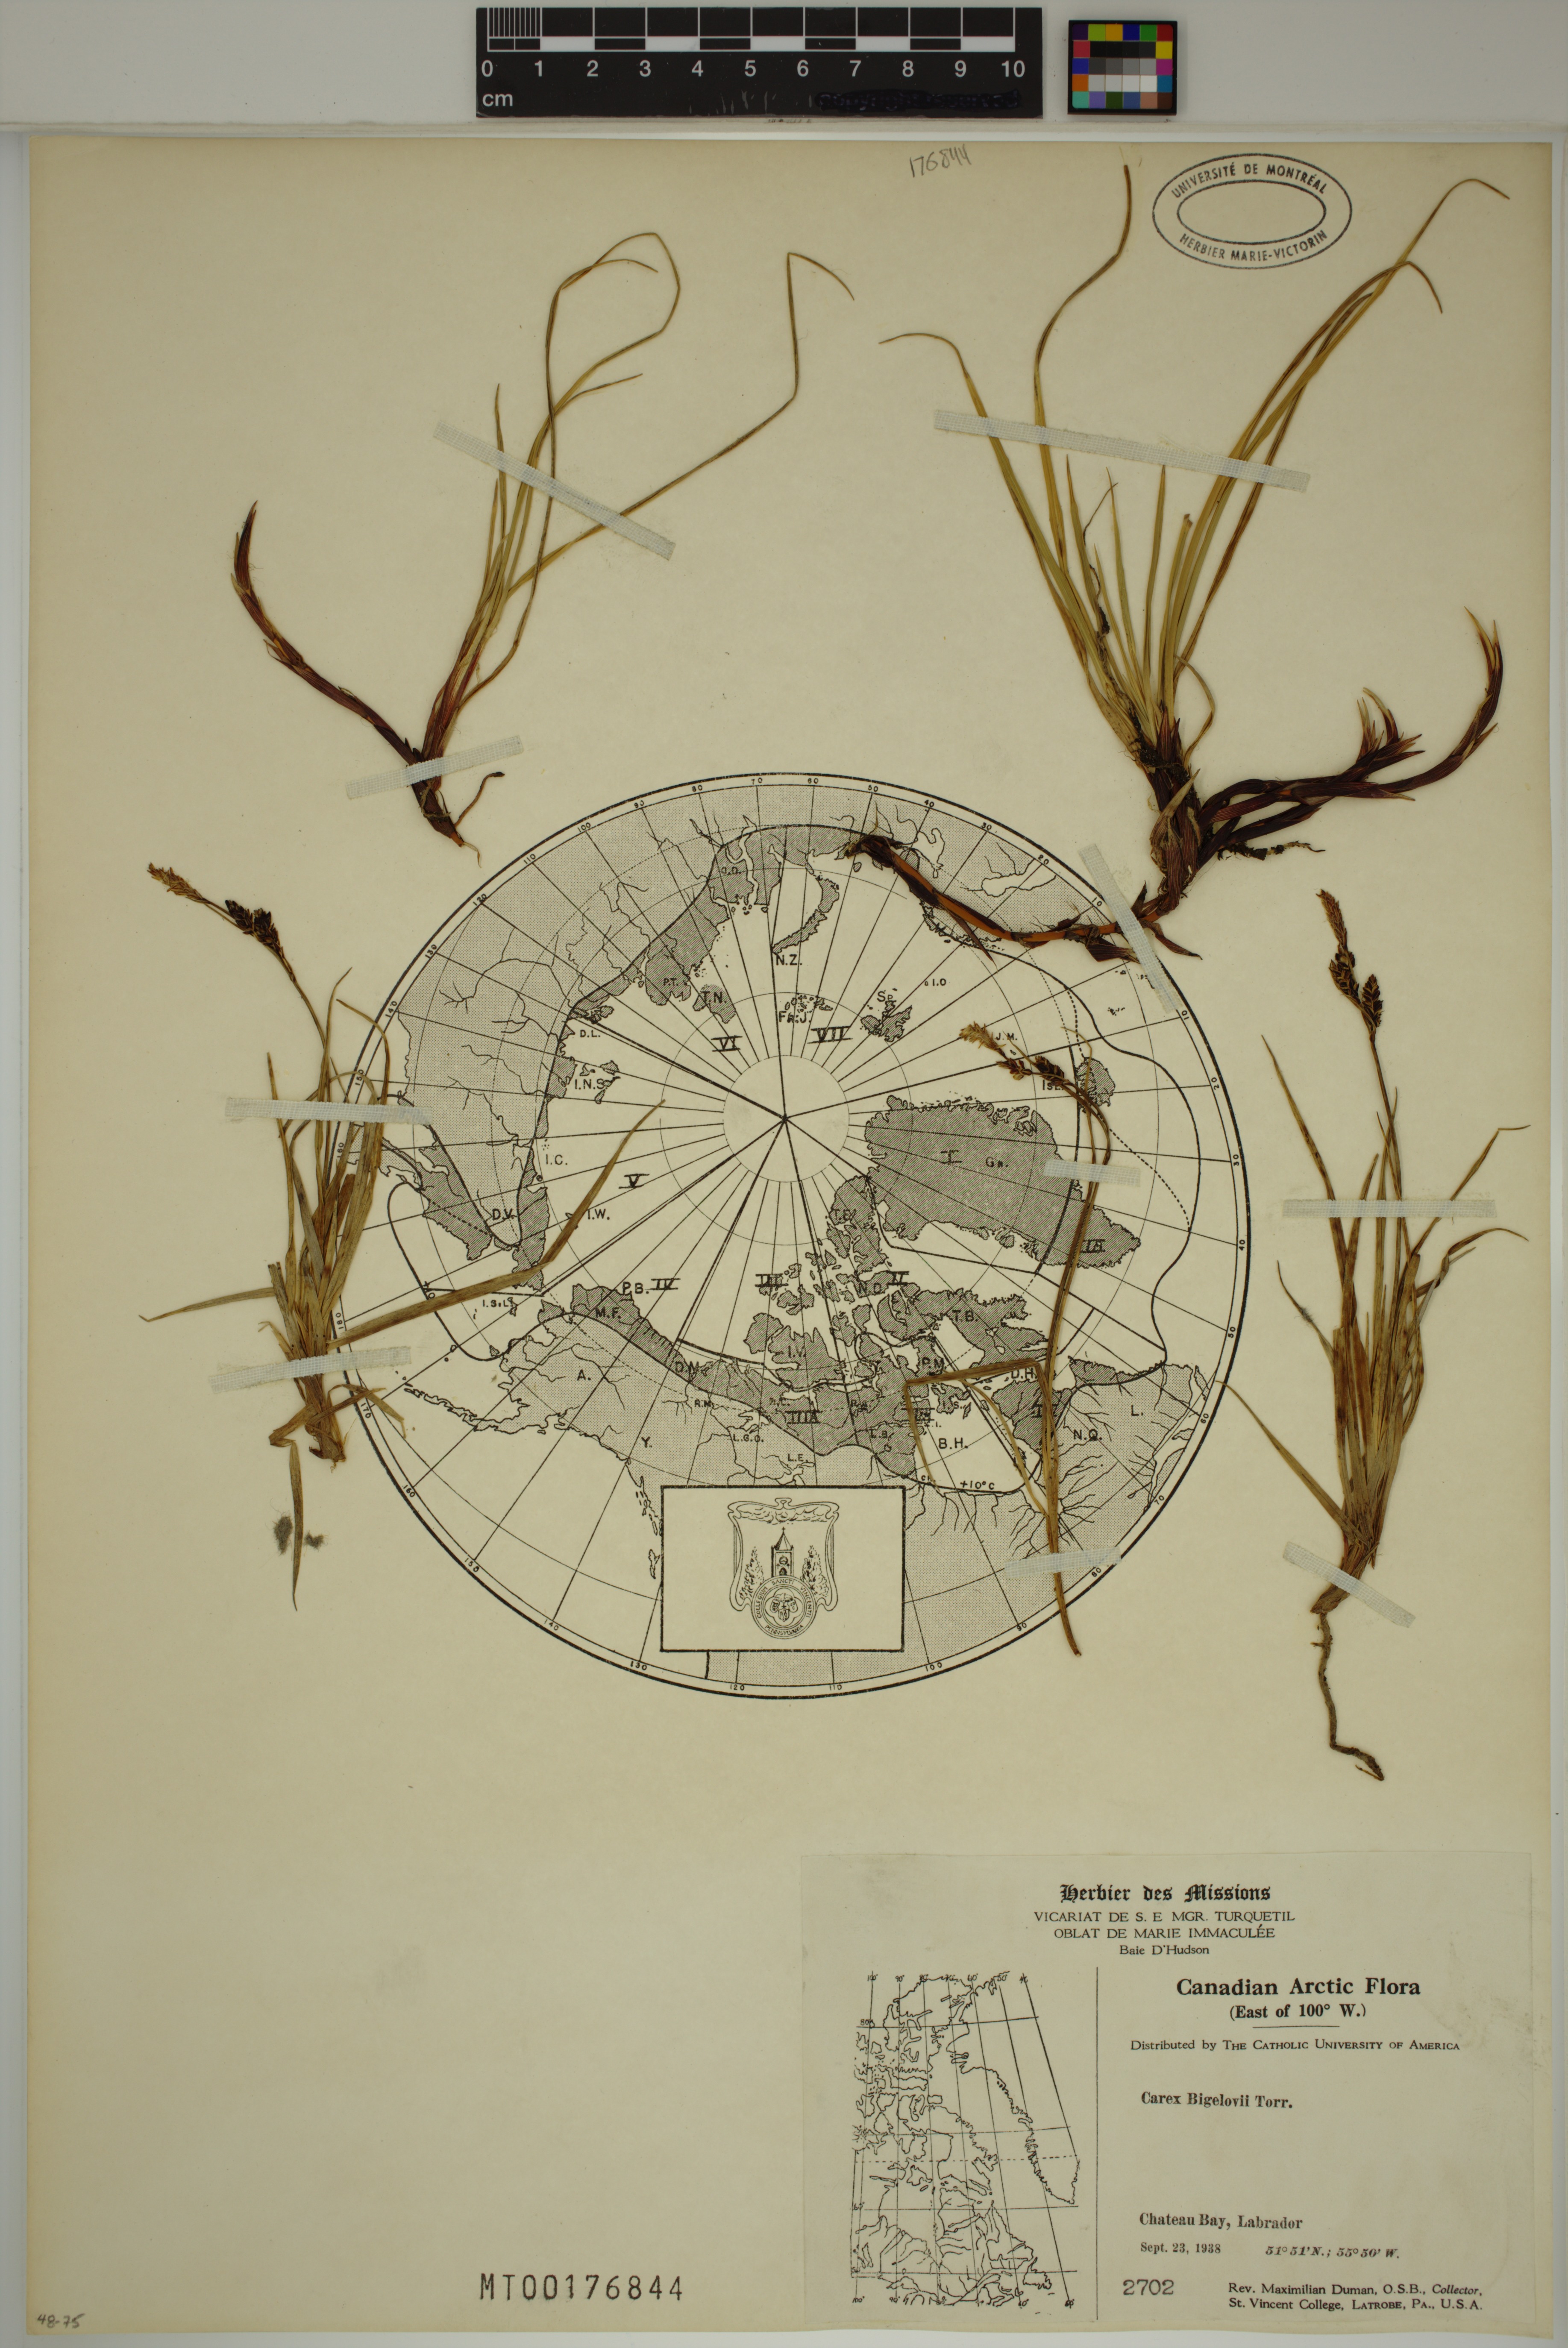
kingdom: Plantae
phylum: Tracheophyta
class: Liliopsida
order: Poales
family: Cyperaceae
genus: Carex
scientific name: Carex bigelowii
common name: Stiff sedge
